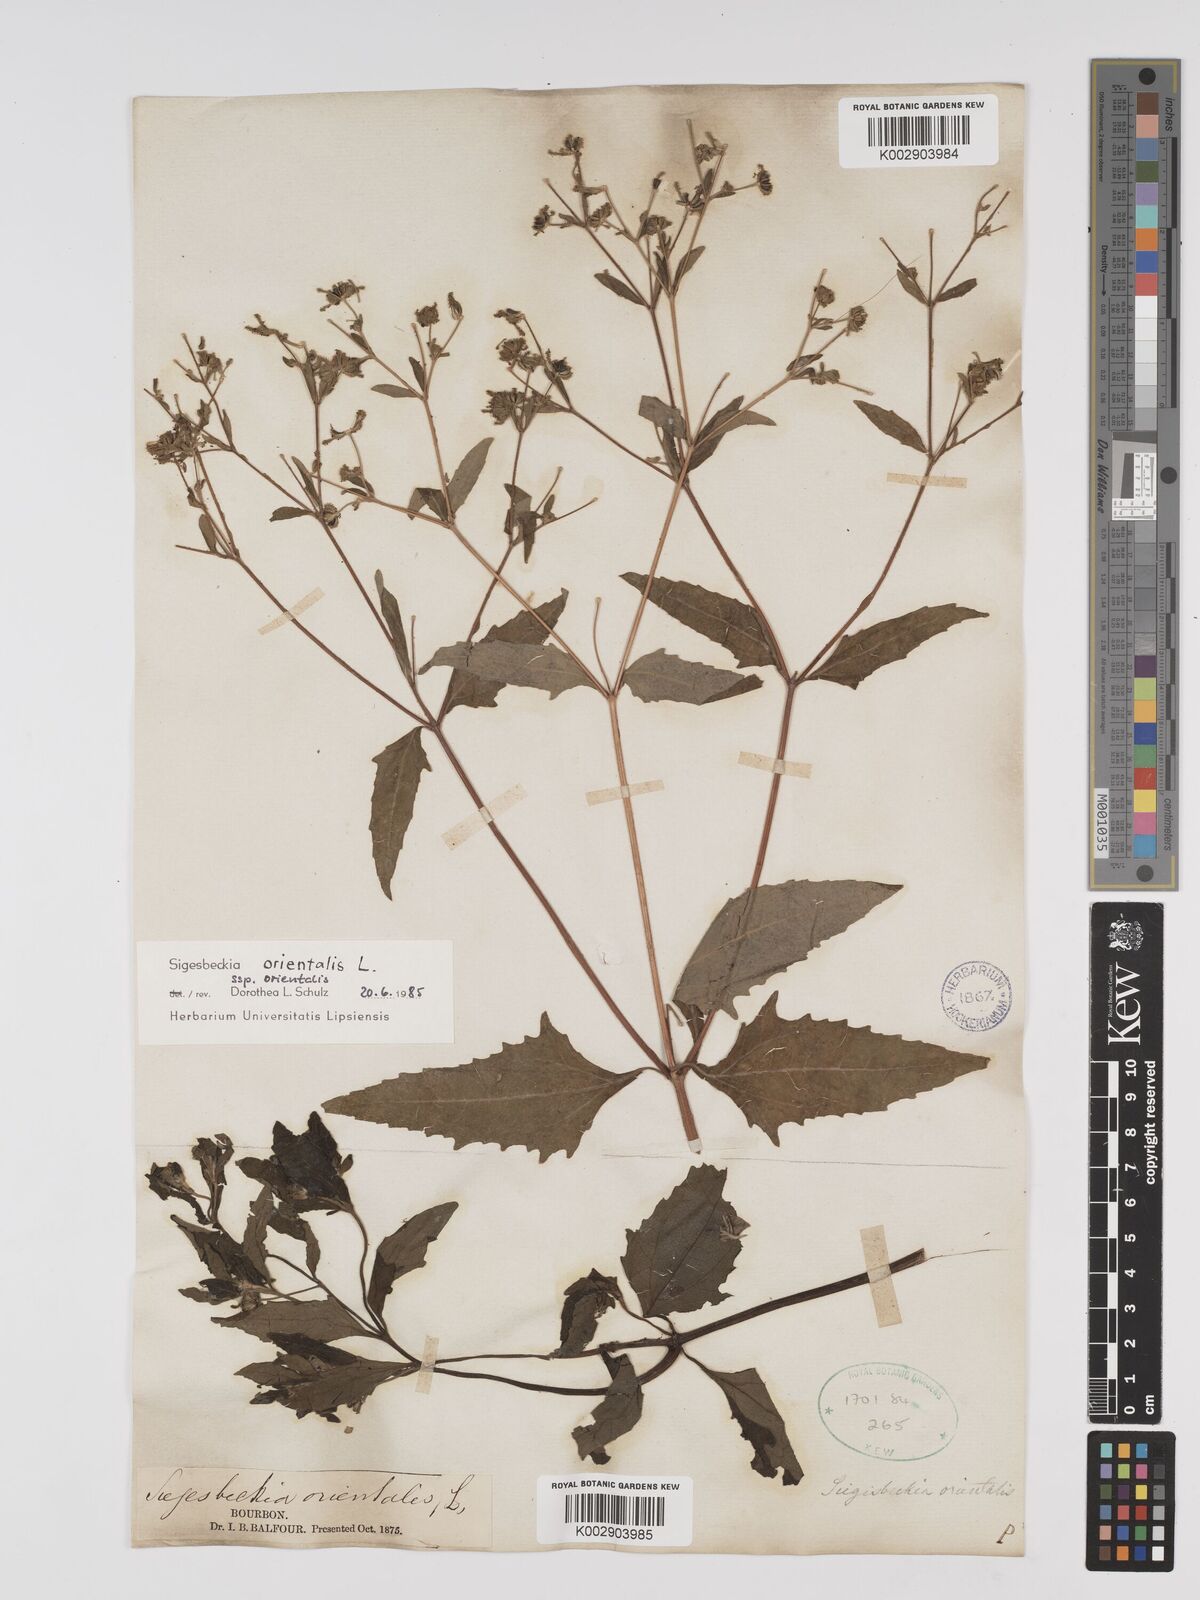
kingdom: Plantae
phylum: Tracheophyta
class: Magnoliopsida
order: Asterales
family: Asteraceae
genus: Sigesbeckia
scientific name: Sigesbeckia orientalis
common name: Eastern st paul's-wort
